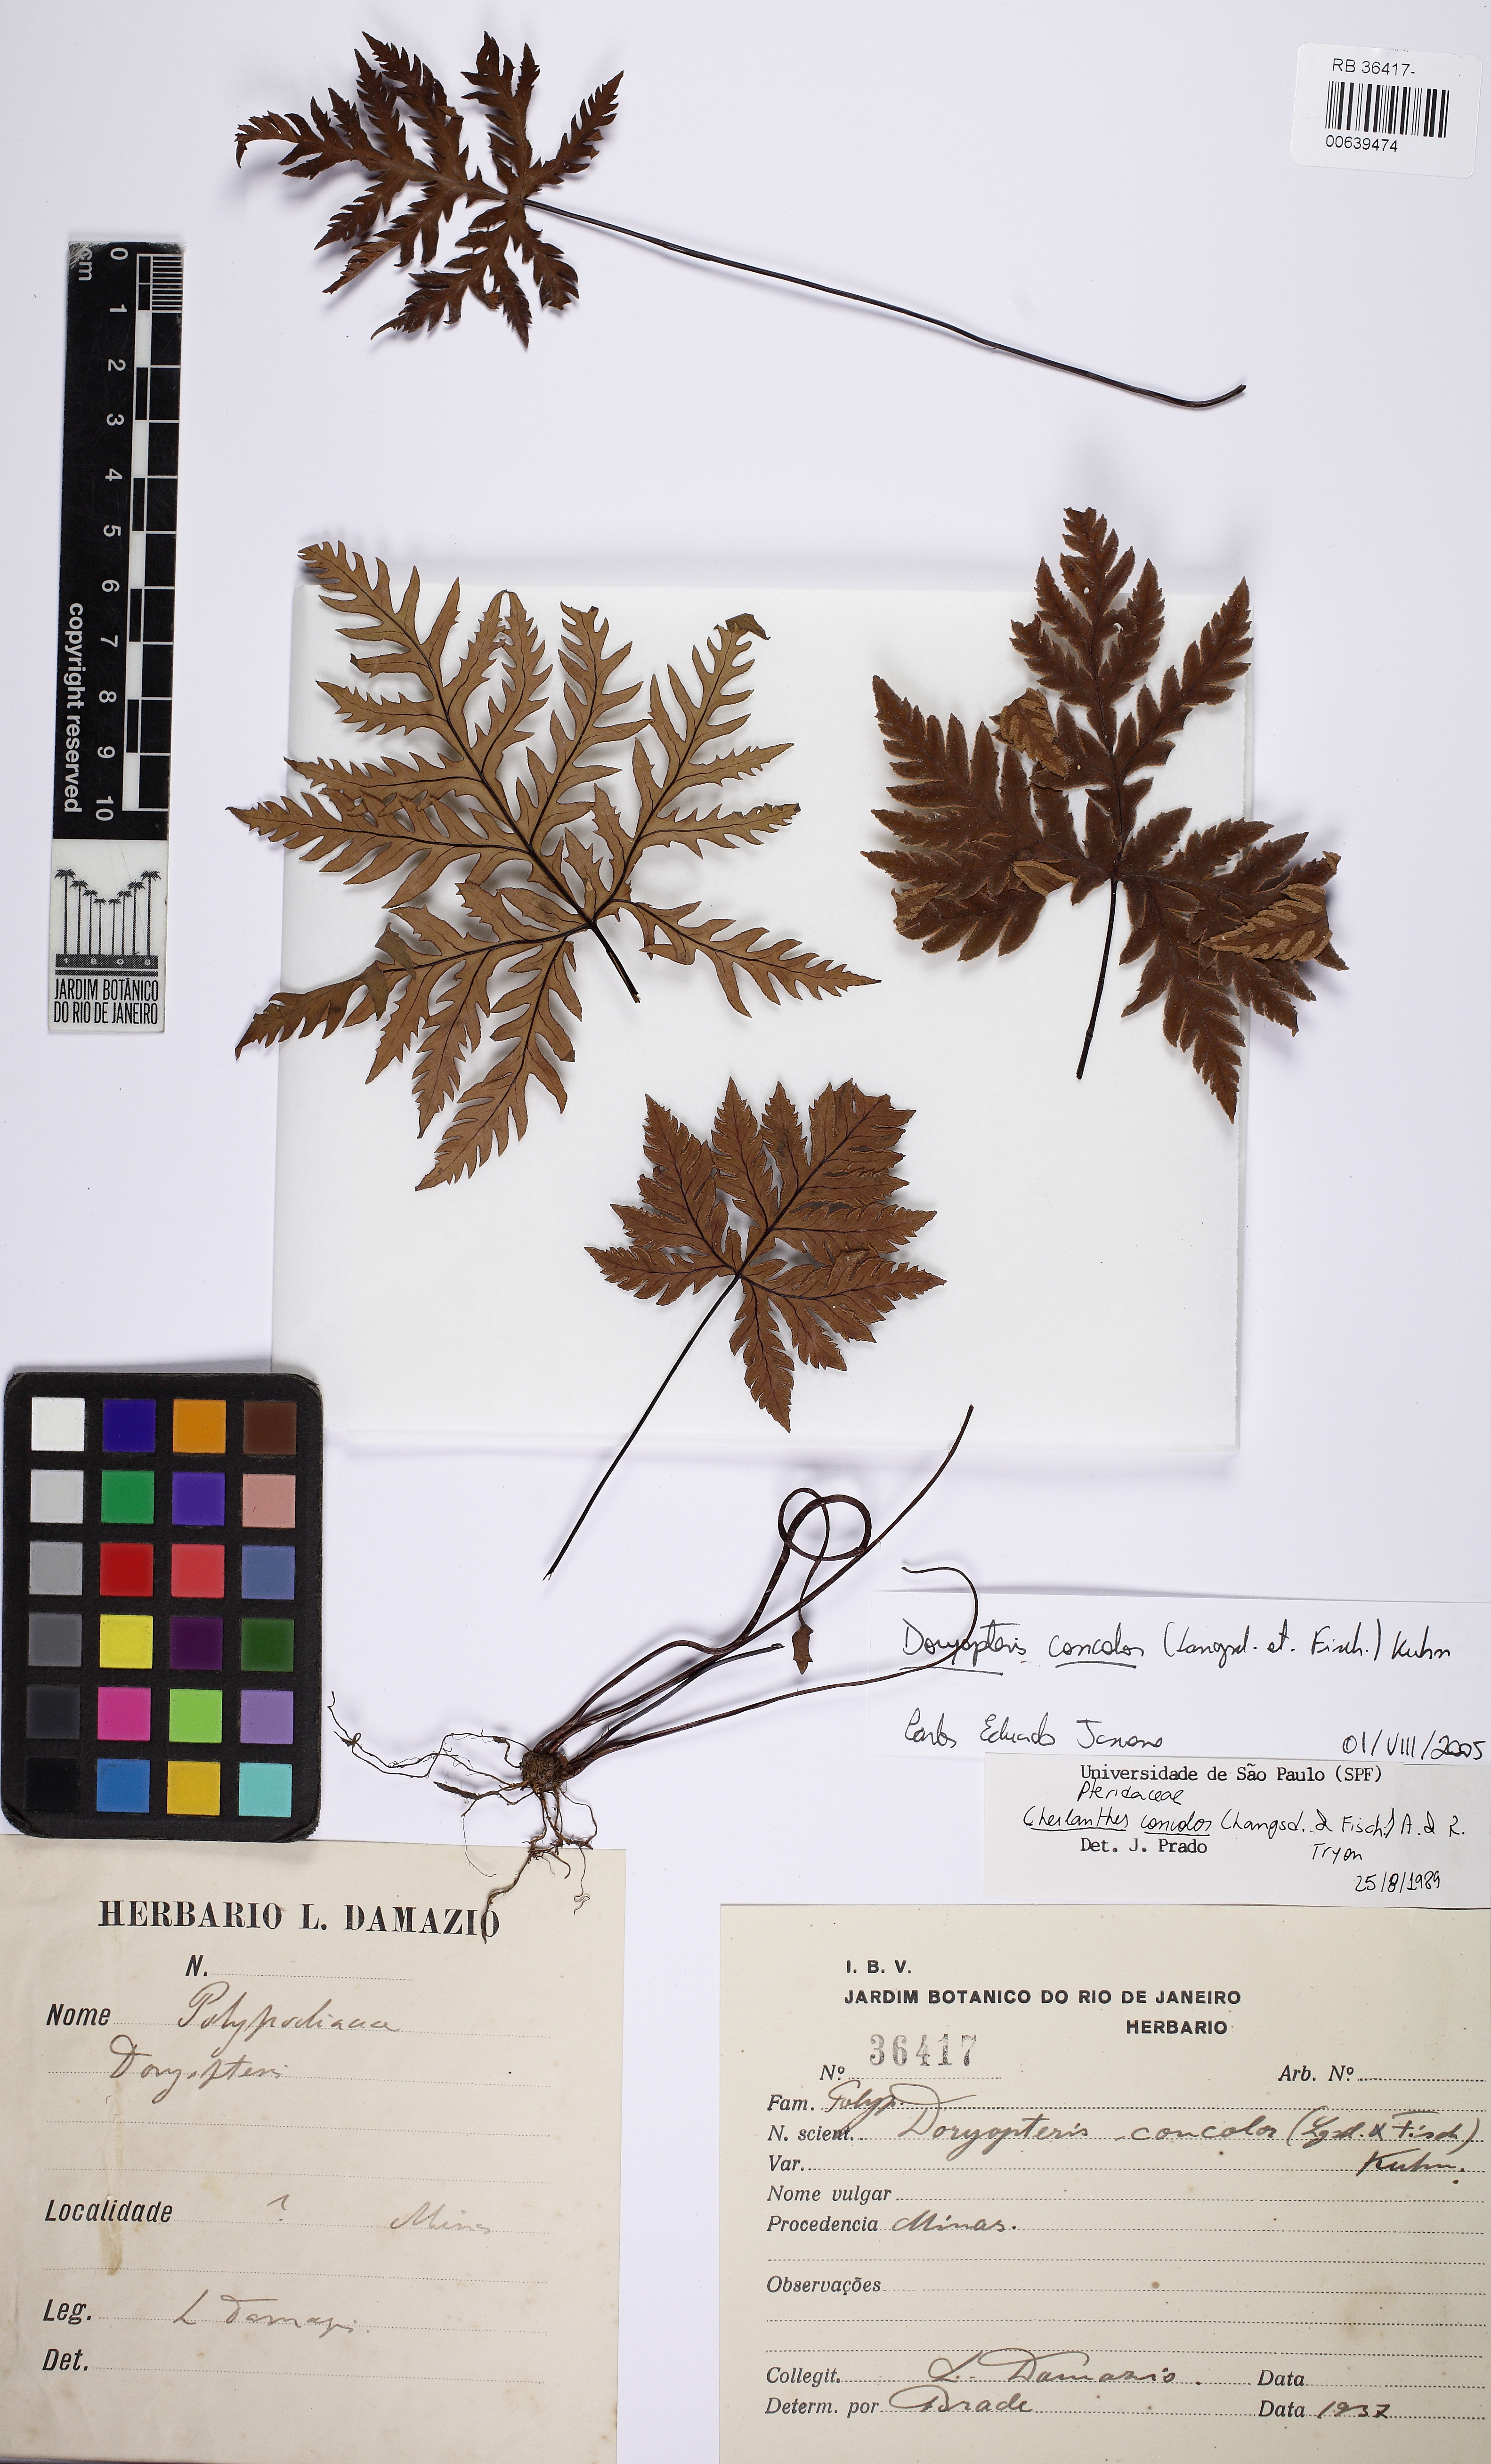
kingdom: Plantae
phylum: Tracheophyta
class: Polypodiopsida
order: Polypodiales
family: Pteridaceae
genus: Doryopteris
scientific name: Doryopteris concolor
